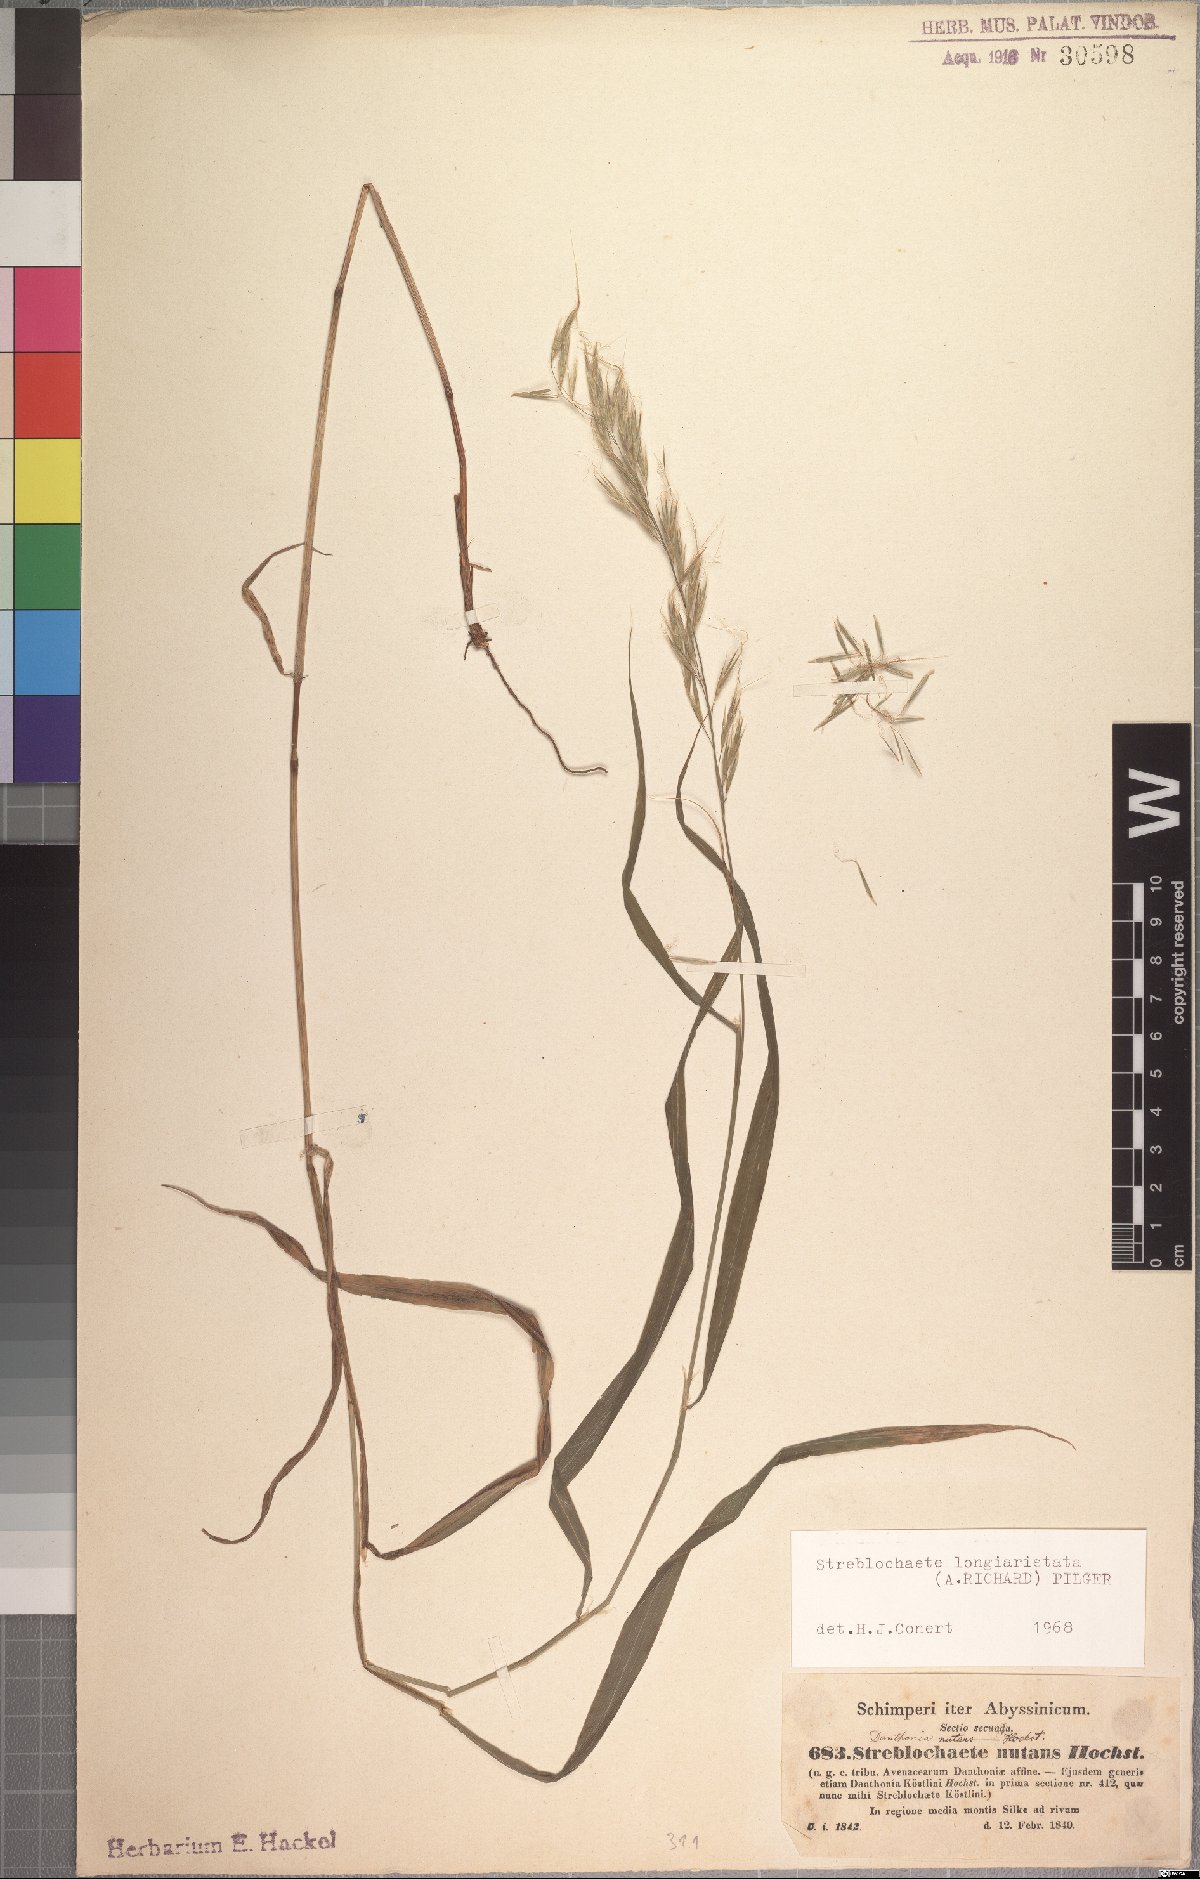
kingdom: Plantae
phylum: Tracheophyta
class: Liliopsida
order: Poales
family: Poaceae
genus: Koordersiochloa
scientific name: Koordersiochloa longiarista
